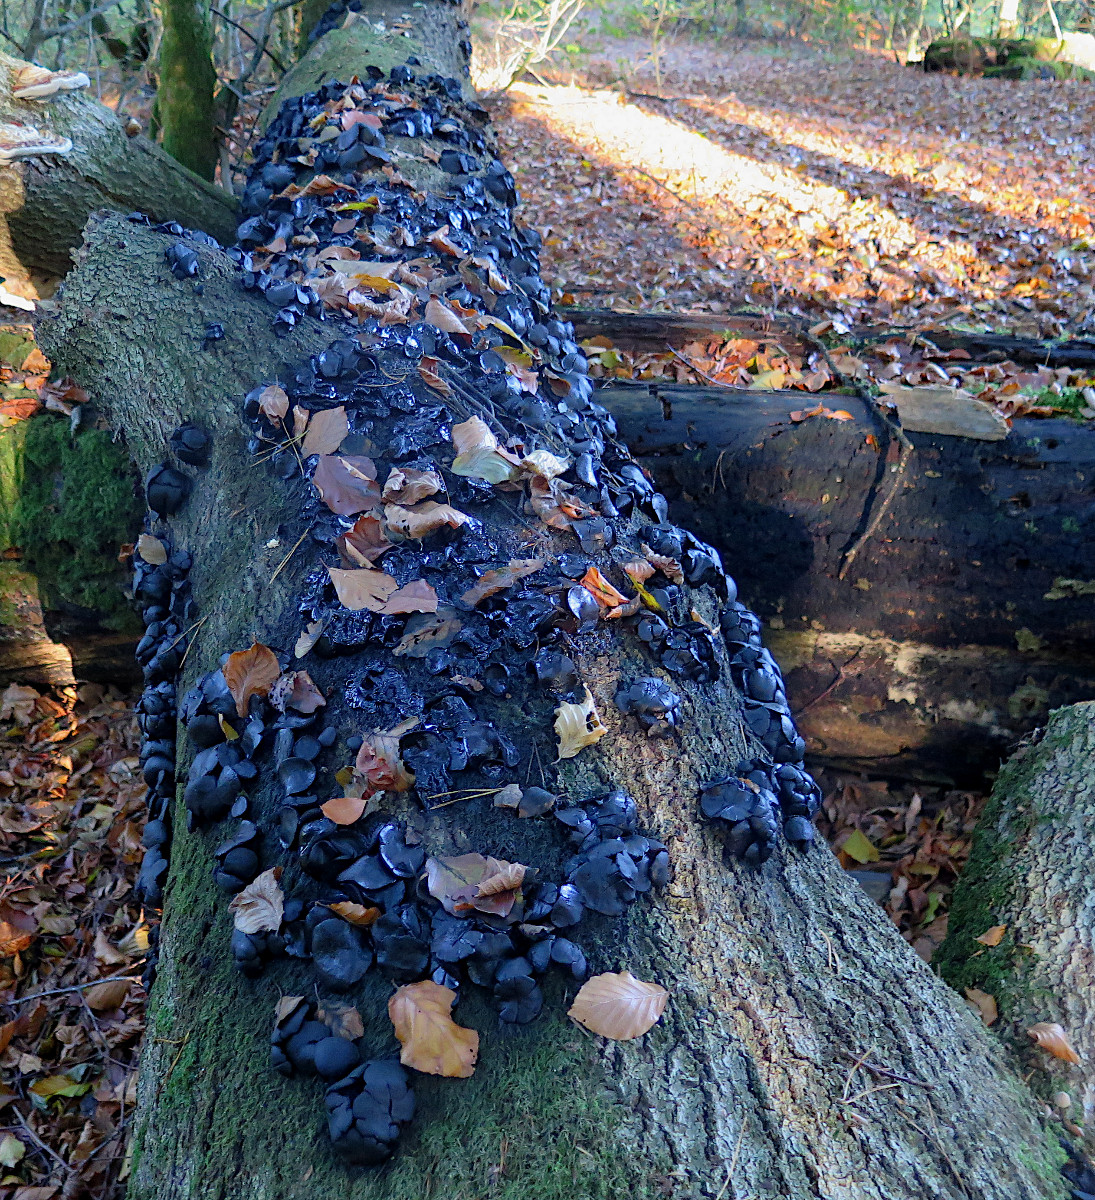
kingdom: Fungi
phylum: Ascomycota
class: Leotiomycetes
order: Phacidiales
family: Phacidiaceae
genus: Bulgaria
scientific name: Bulgaria inquinans
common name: afsmittende topsvamp
